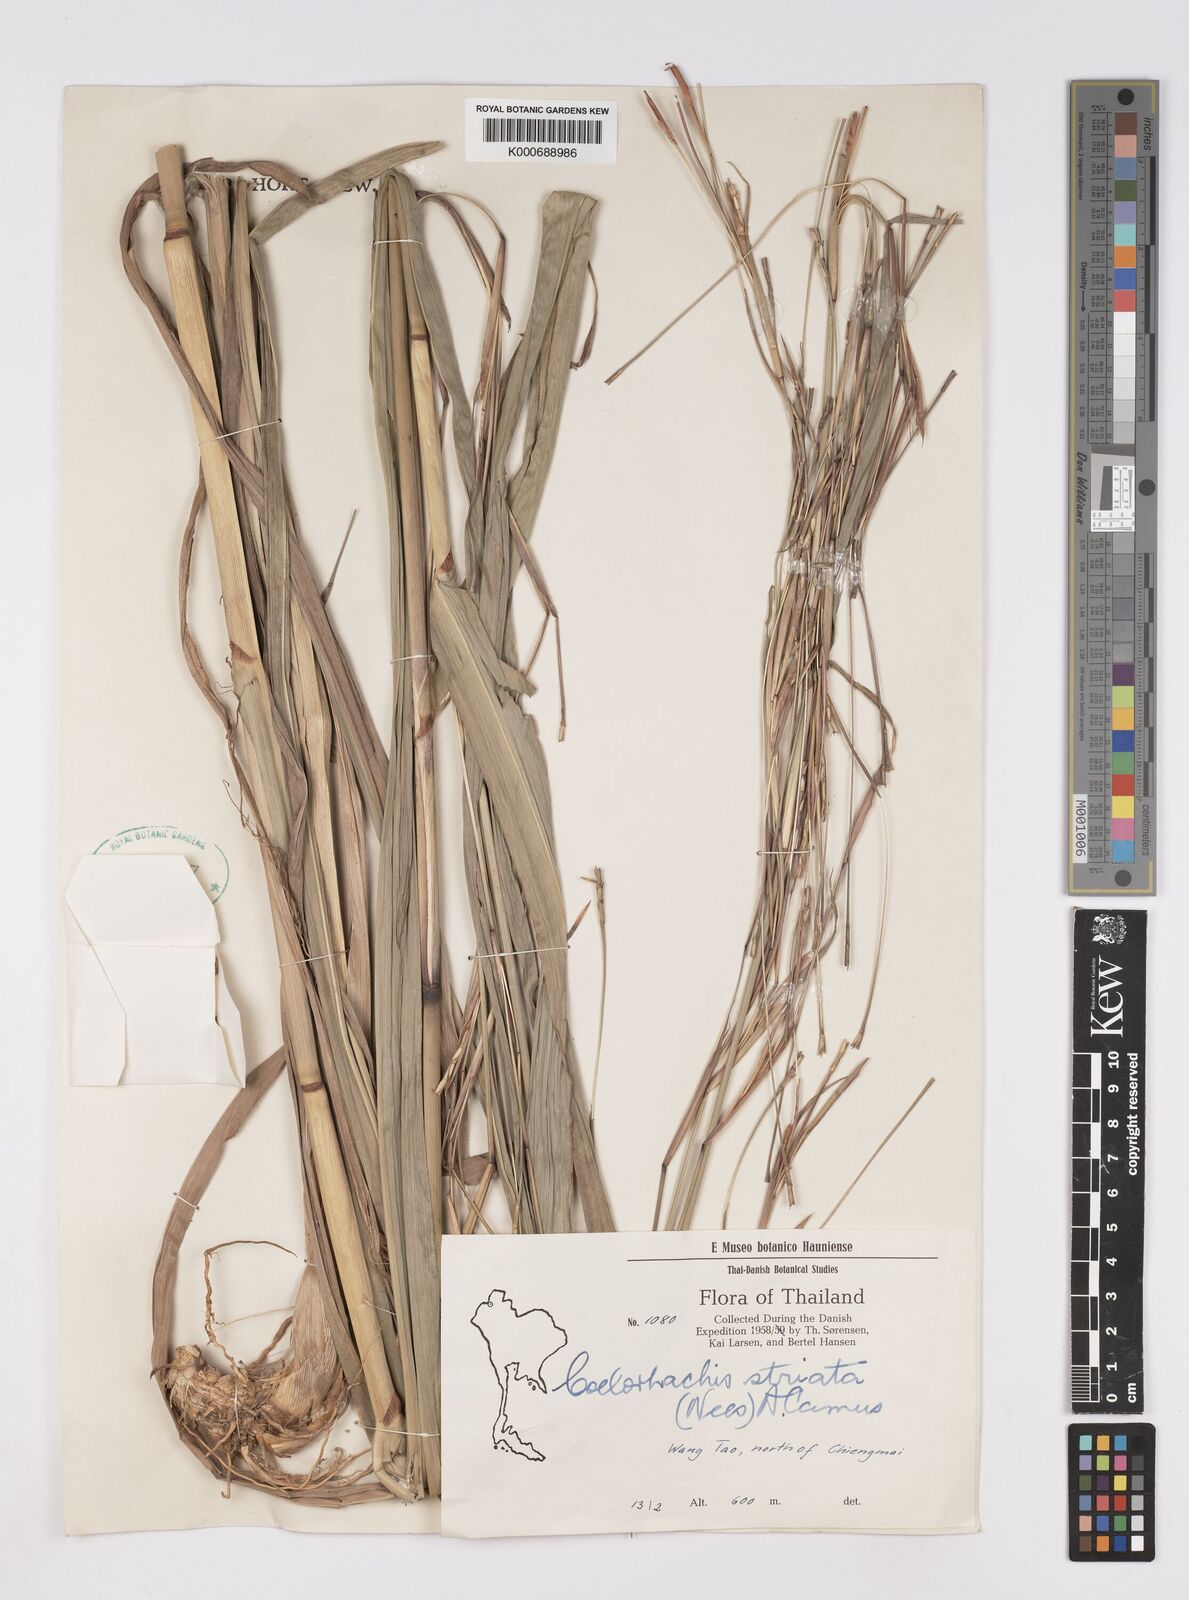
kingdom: Plantae
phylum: Tracheophyta
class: Liliopsida
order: Poales
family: Poaceae
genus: Rottboellia
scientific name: Rottboellia striata
